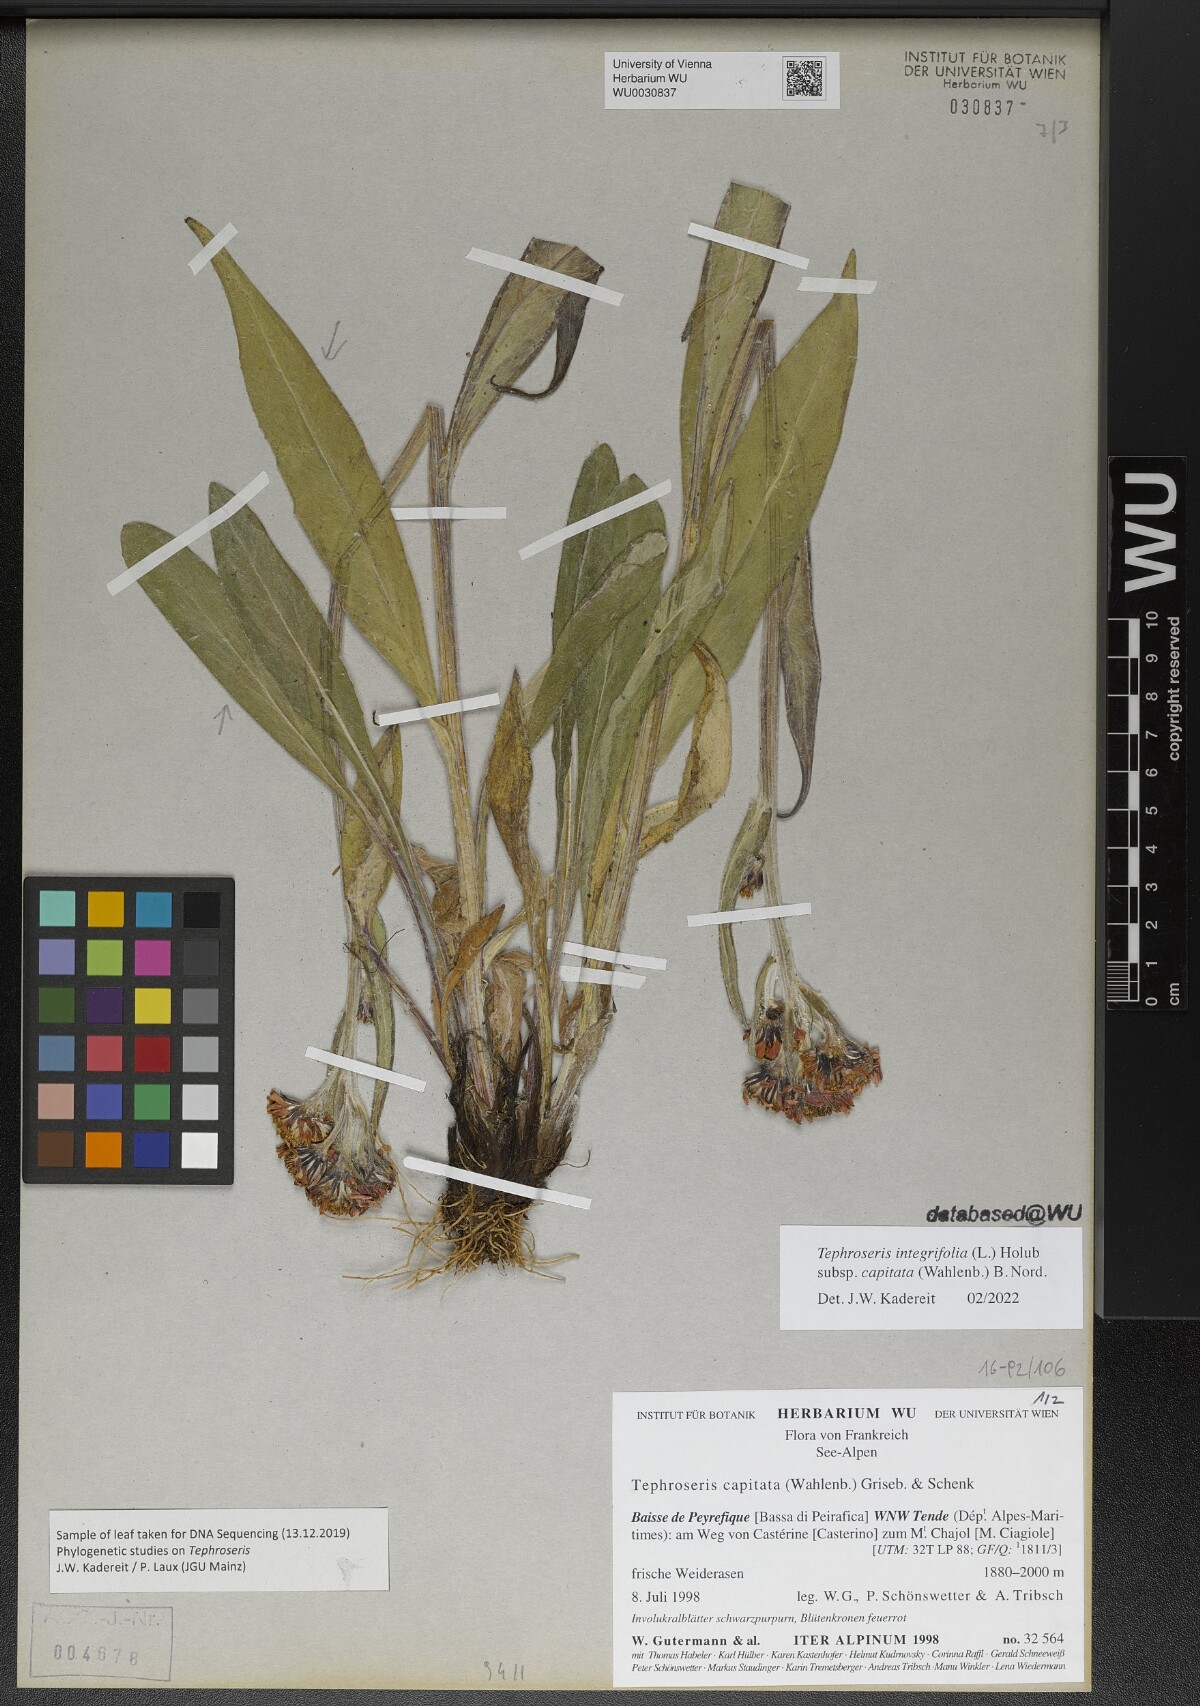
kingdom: Plantae
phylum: Tracheophyta
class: Magnoliopsida
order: Asterales
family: Asteraceae
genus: Tephroseris
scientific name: Tephroseris integrifolia
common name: Field fleawort
